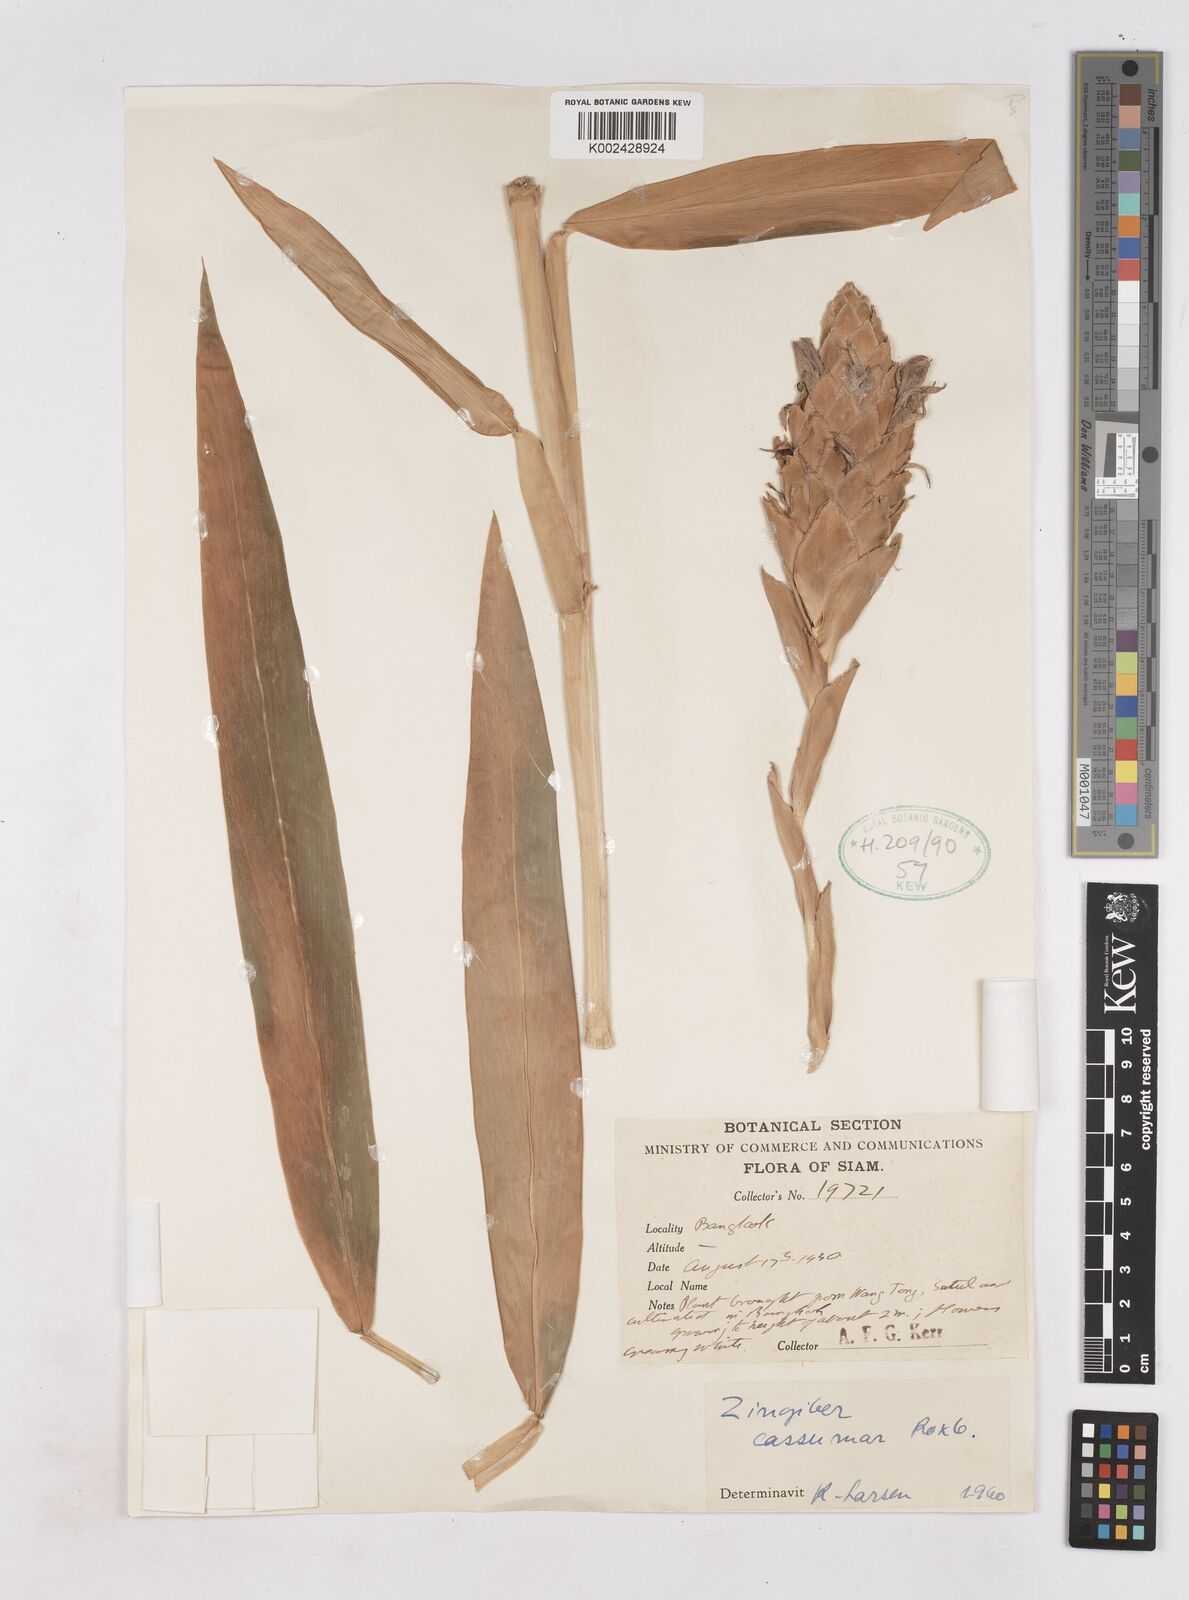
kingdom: Plantae
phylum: Tracheophyta
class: Liliopsida
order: Zingiberales
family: Zingiberaceae
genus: Zingiber
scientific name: Zingiber montanum
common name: Bengal ginger
